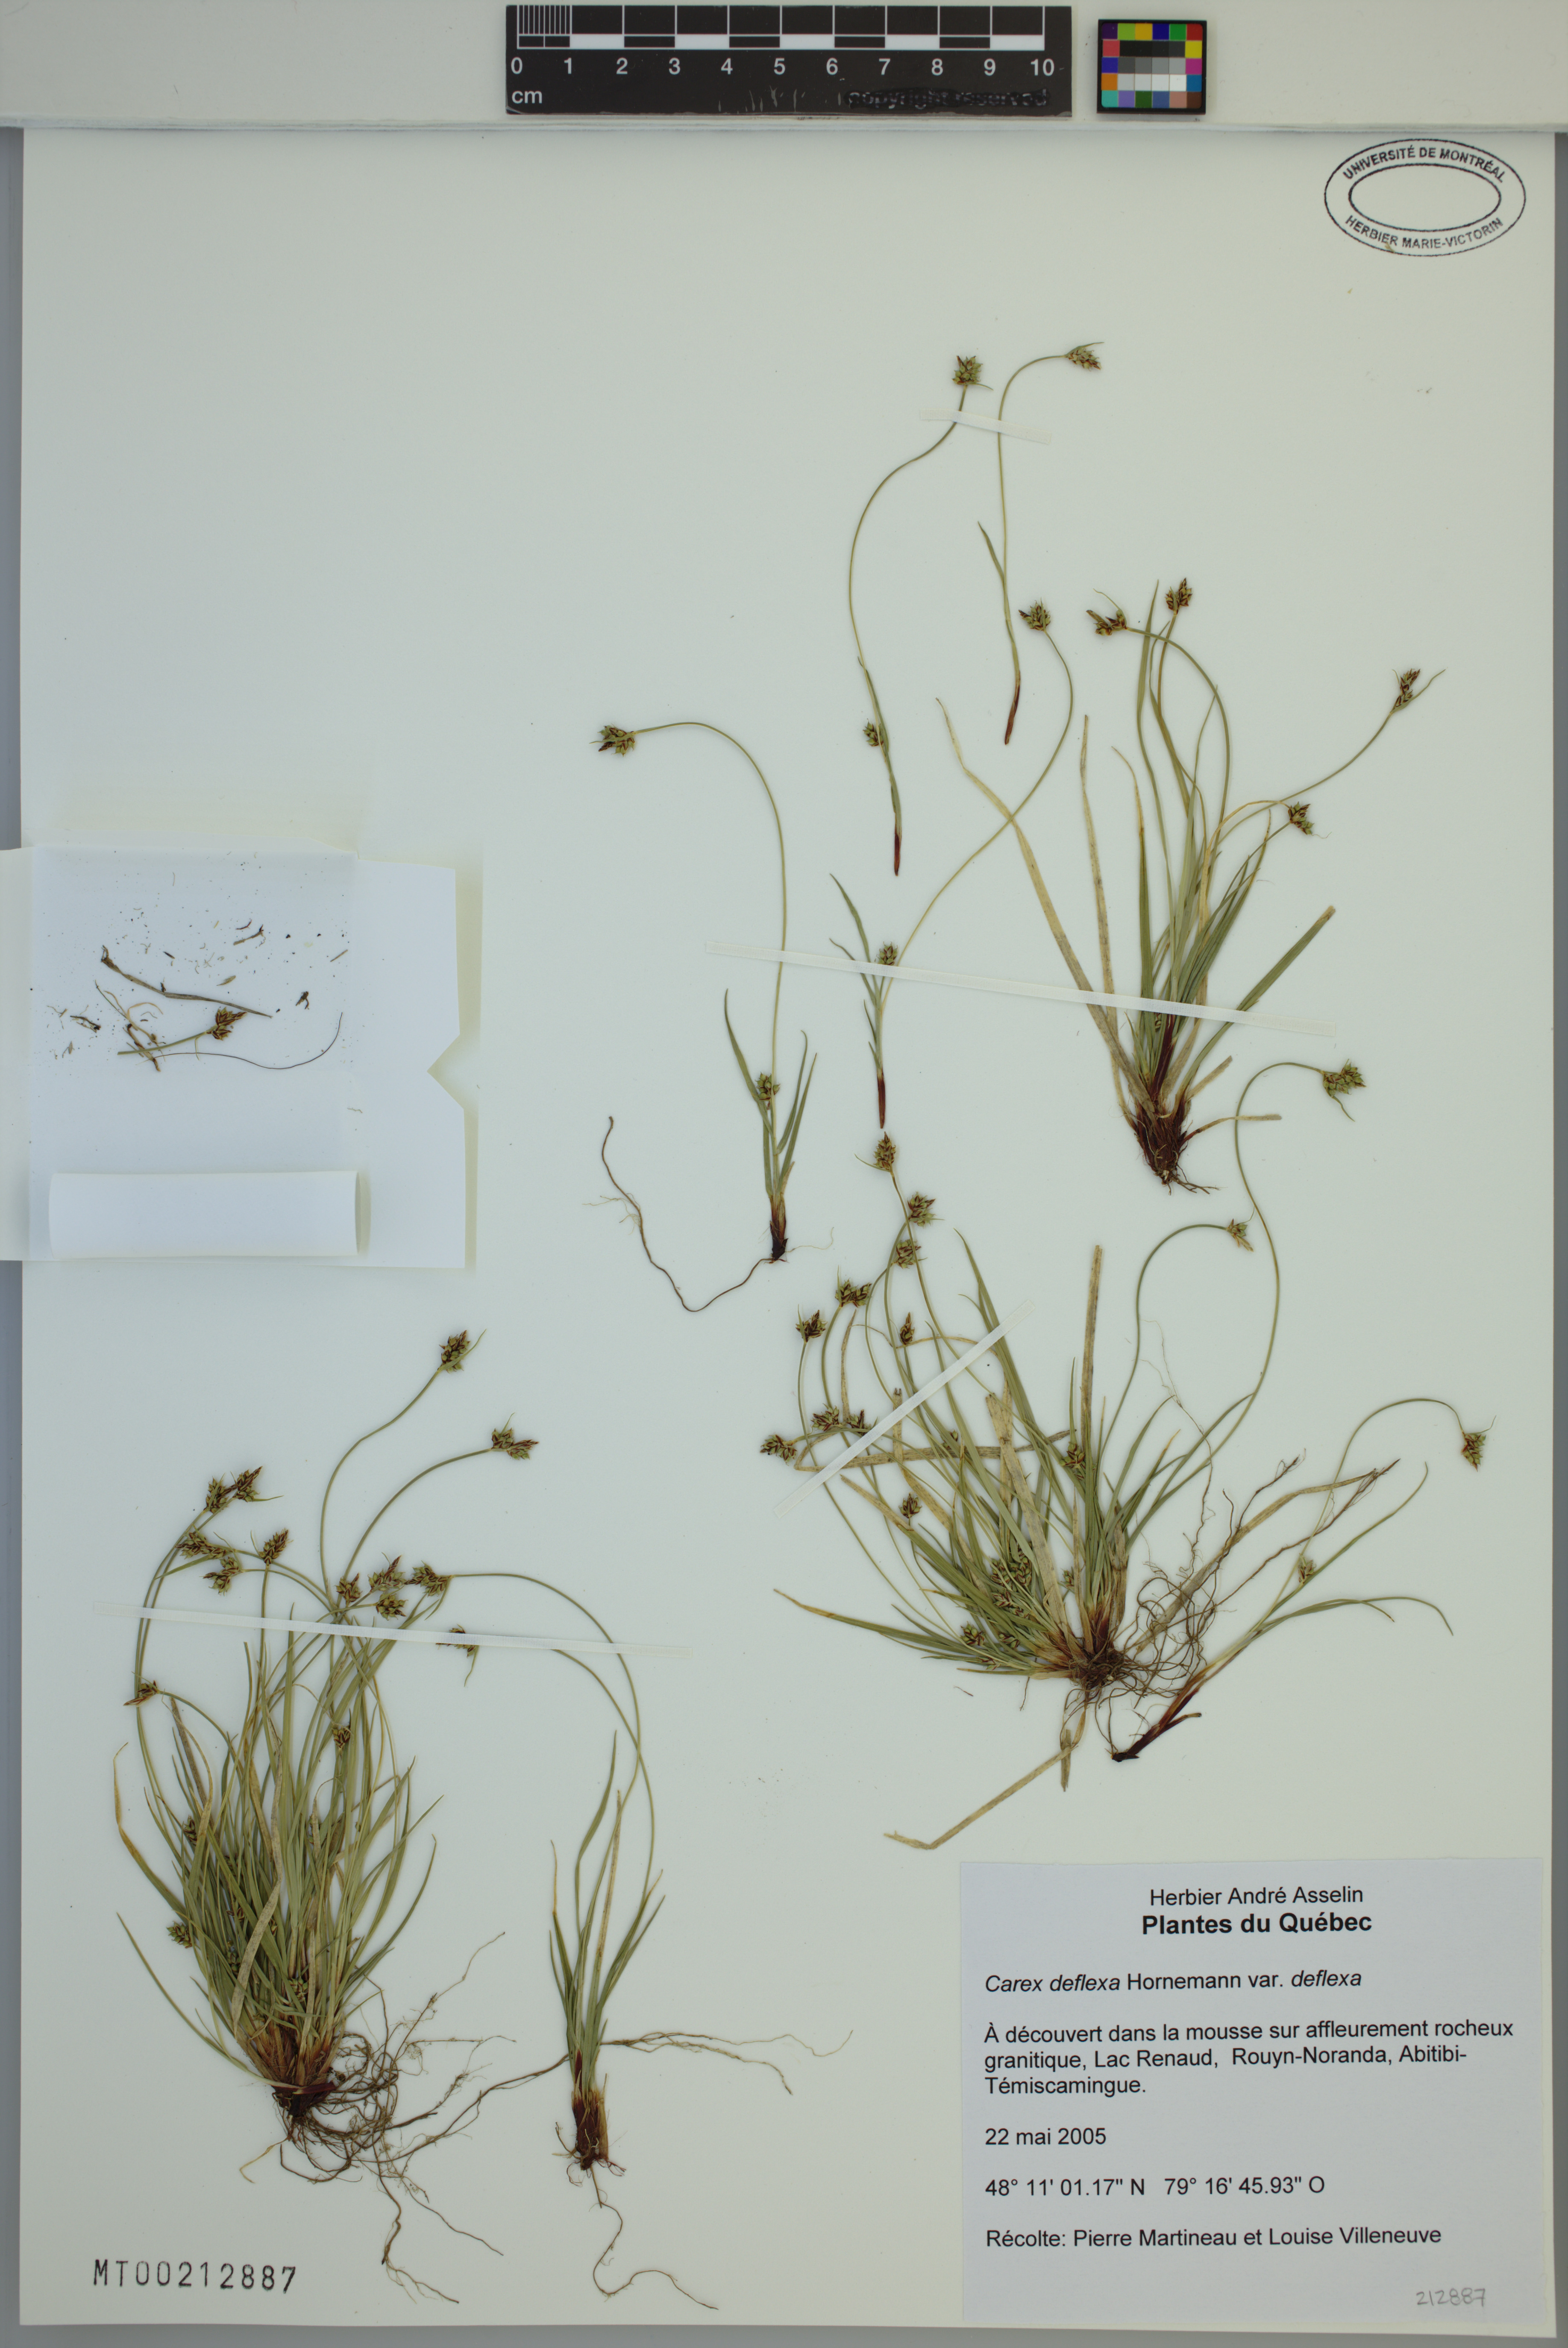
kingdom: Plantae
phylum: Tracheophyta
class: Liliopsida
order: Poales
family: Cyperaceae
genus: Carex
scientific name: Carex deflexa
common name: Bent northern sedge
